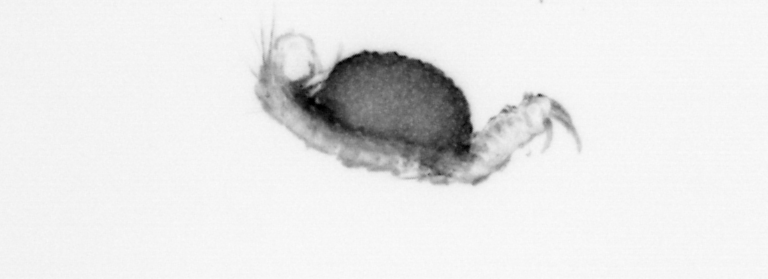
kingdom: Animalia
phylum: Annelida
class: Polychaeta
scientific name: Polychaeta
